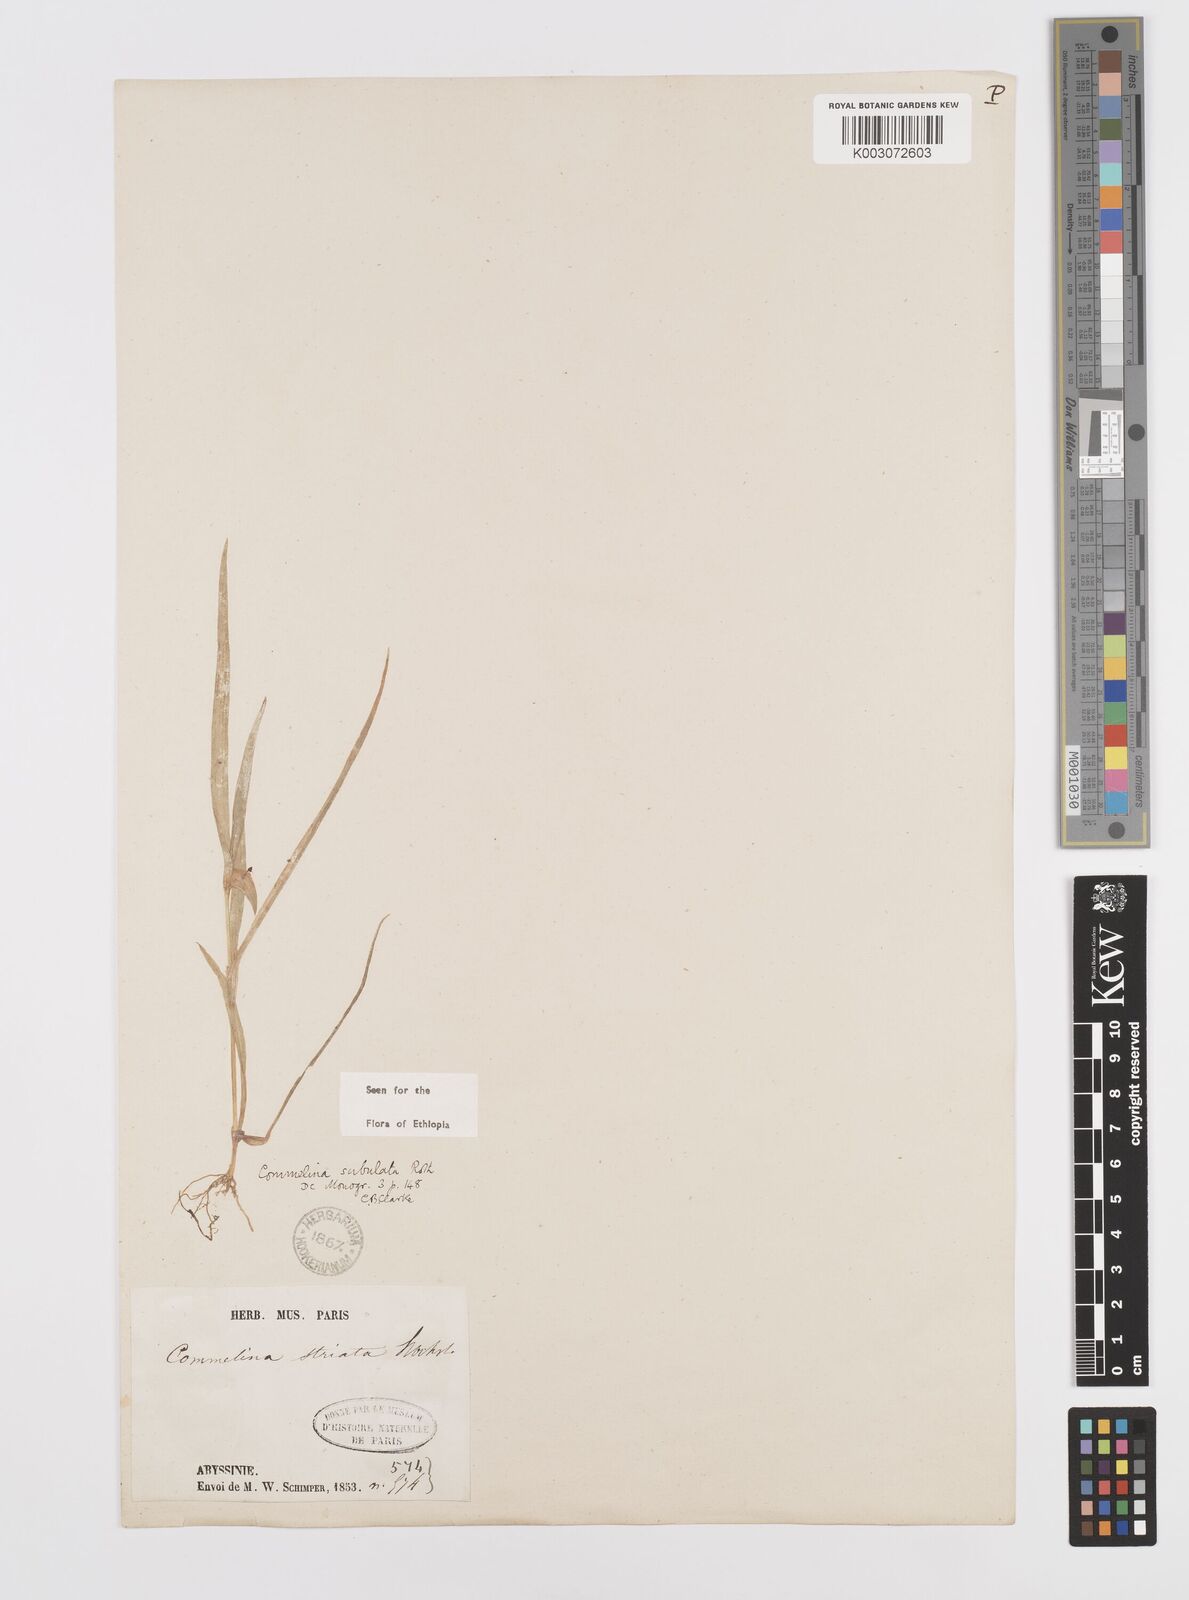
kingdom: Plantae
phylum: Tracheophyta
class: Liliopsida
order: Commelinales
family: Commelinaceae
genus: Commelina
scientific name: Commelina subulata
